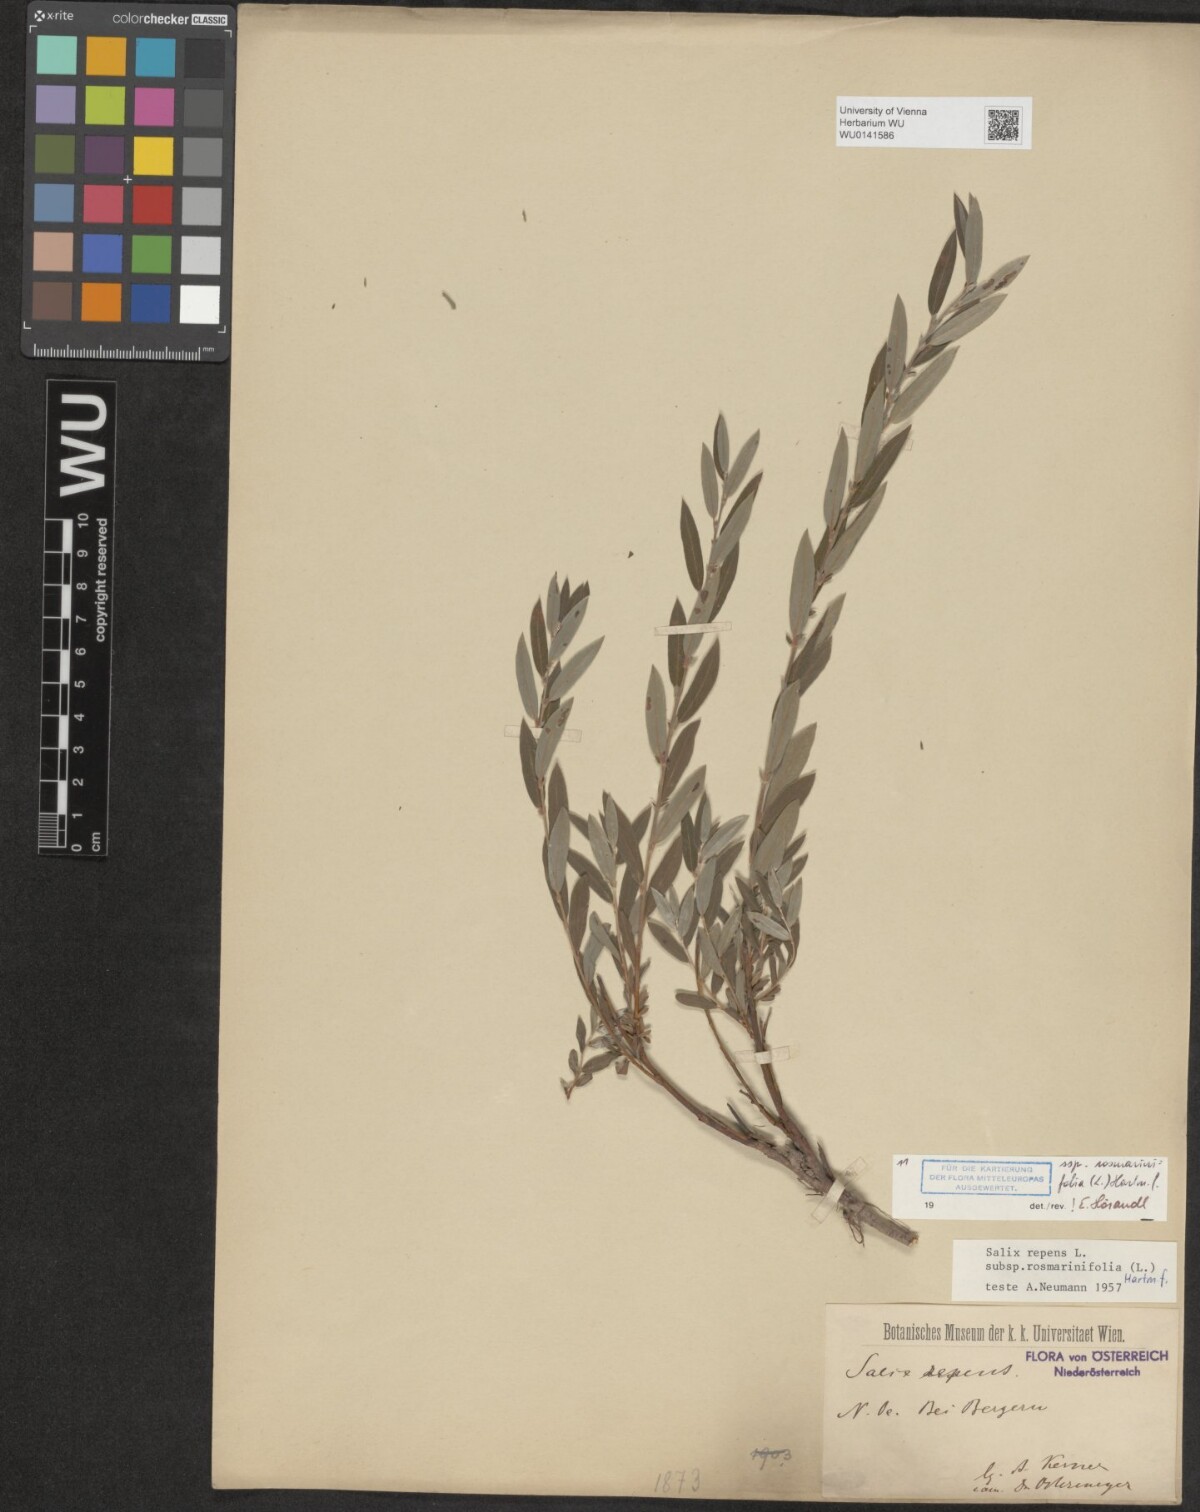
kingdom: Plantae
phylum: Tracheophyta
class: Magnoliopsida
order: Malpighiales
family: Salicaceae
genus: Salix
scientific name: Salix repens
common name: Creeping willow
